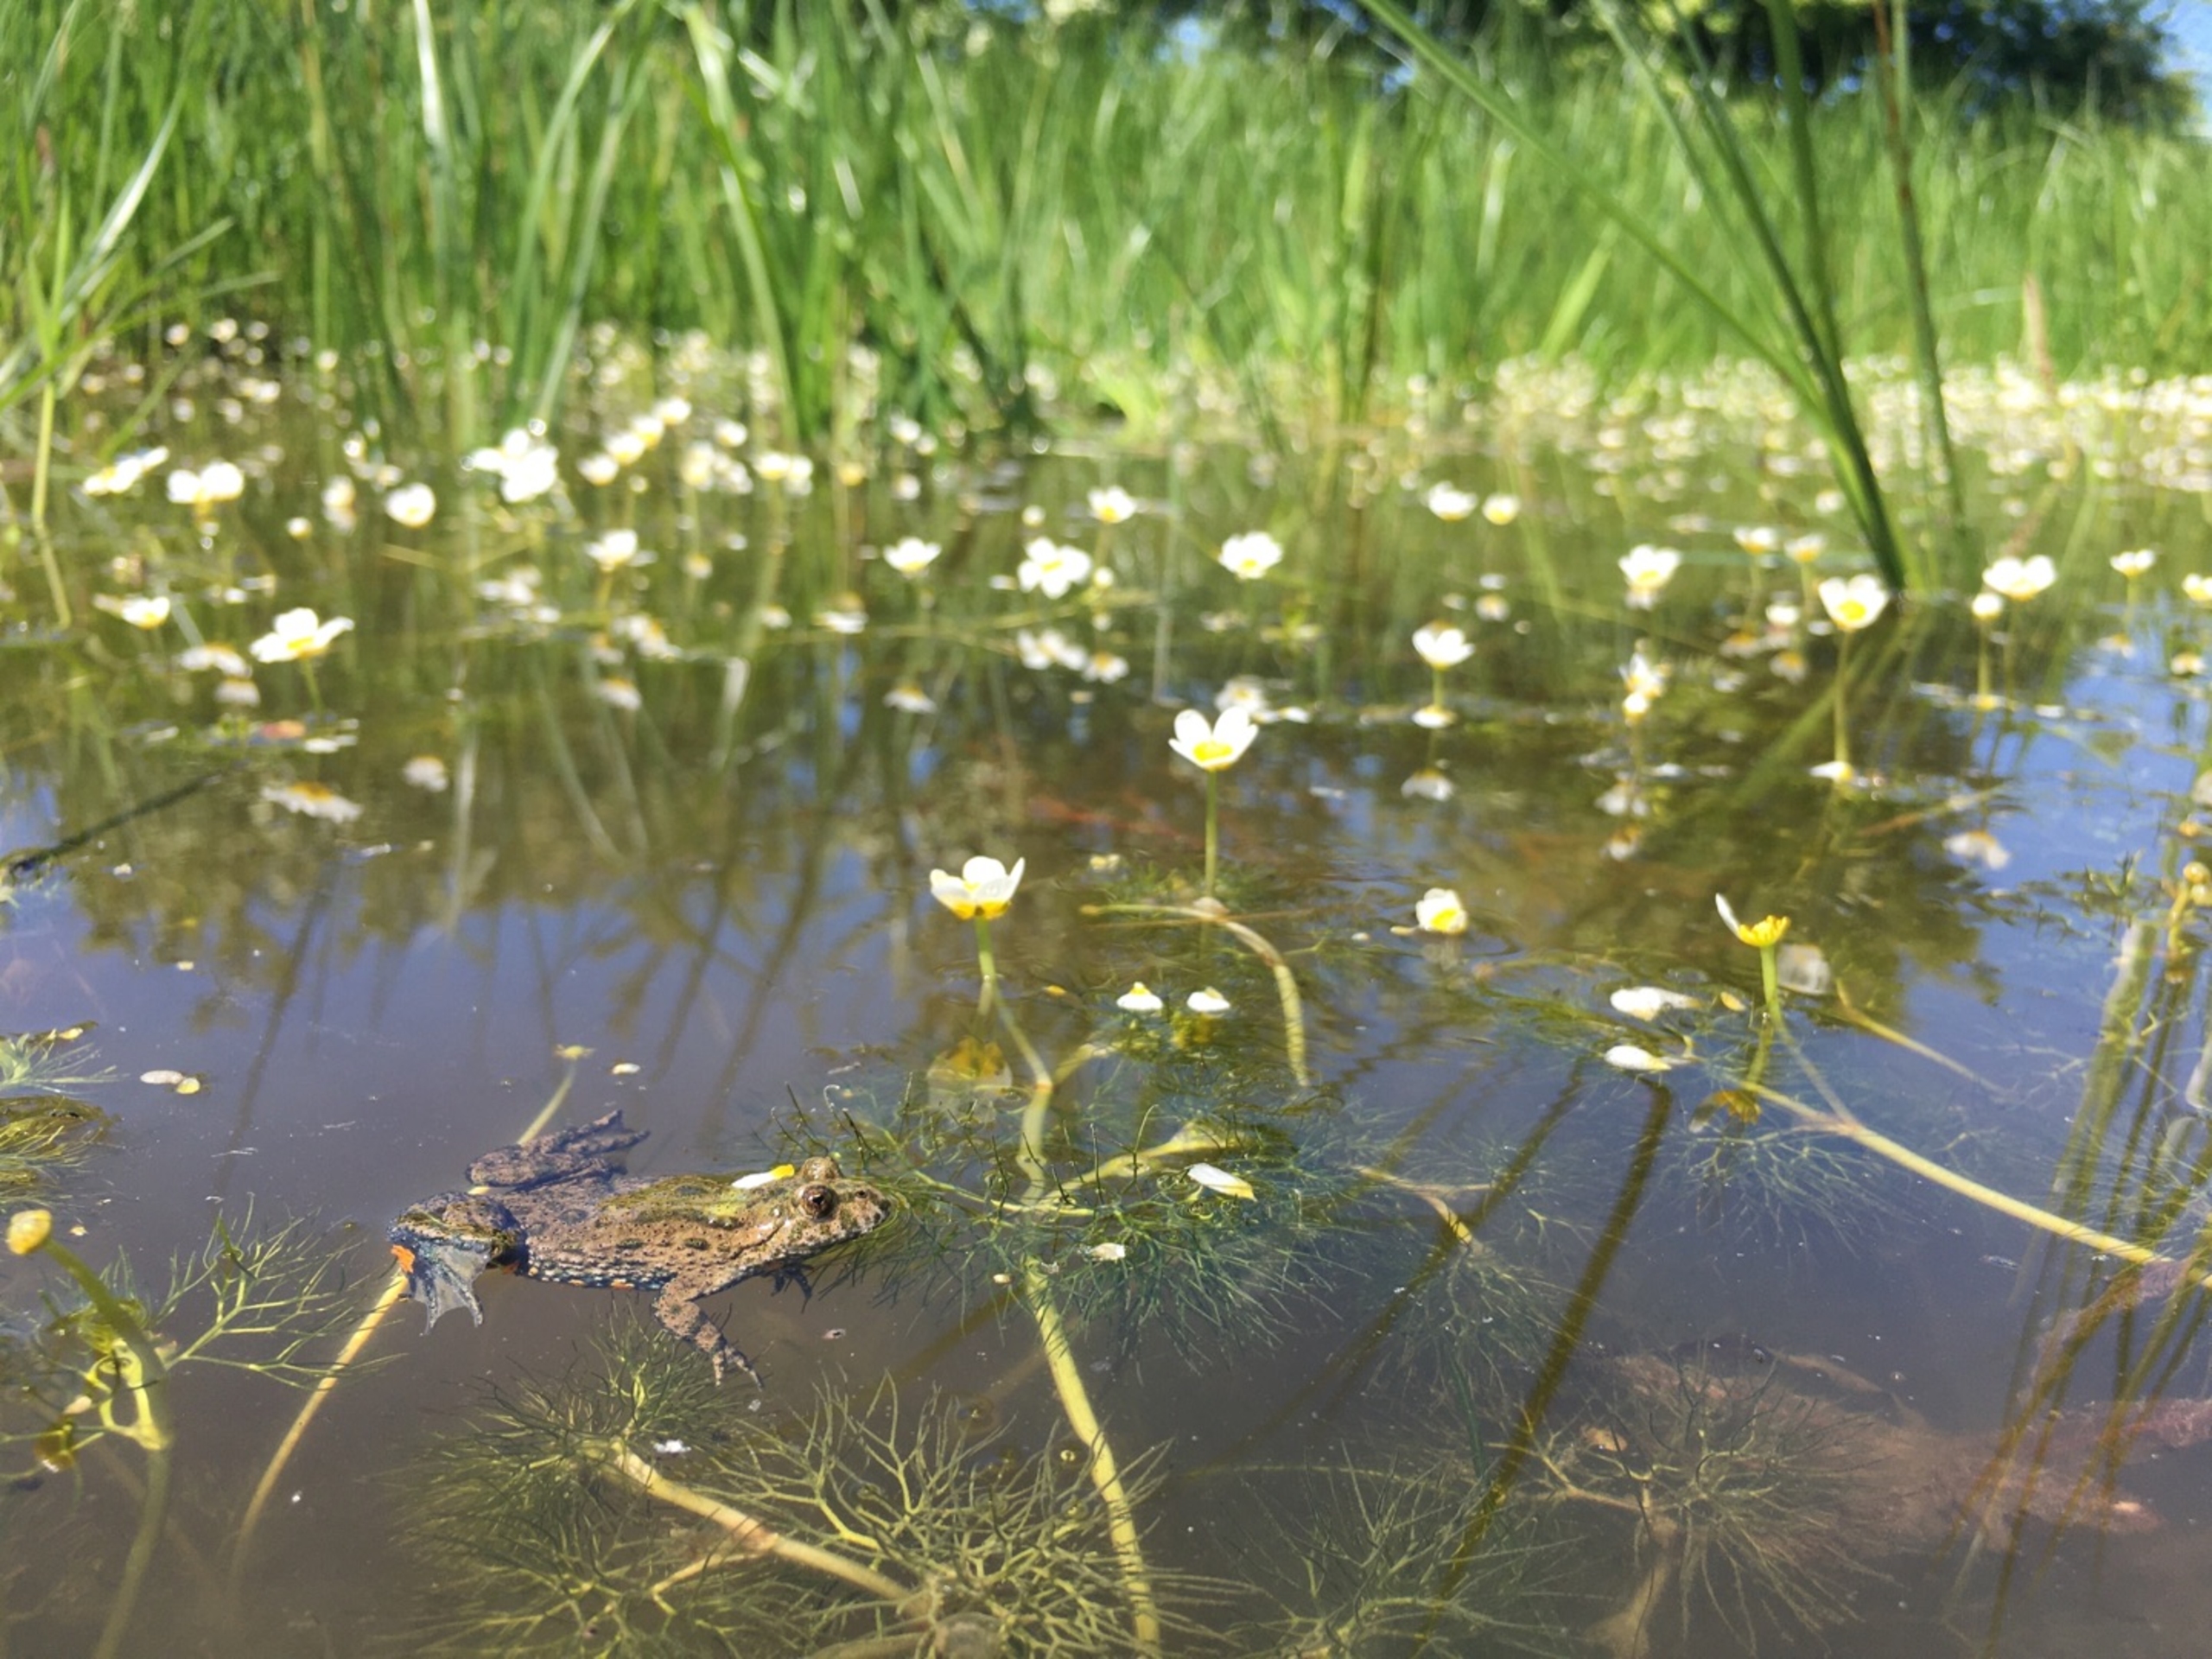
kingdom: Animalia
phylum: Chordata
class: Amphibia
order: Anura
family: Bombinatoridae
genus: Bombina
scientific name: Bombina bombina
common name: Klokkefrø
